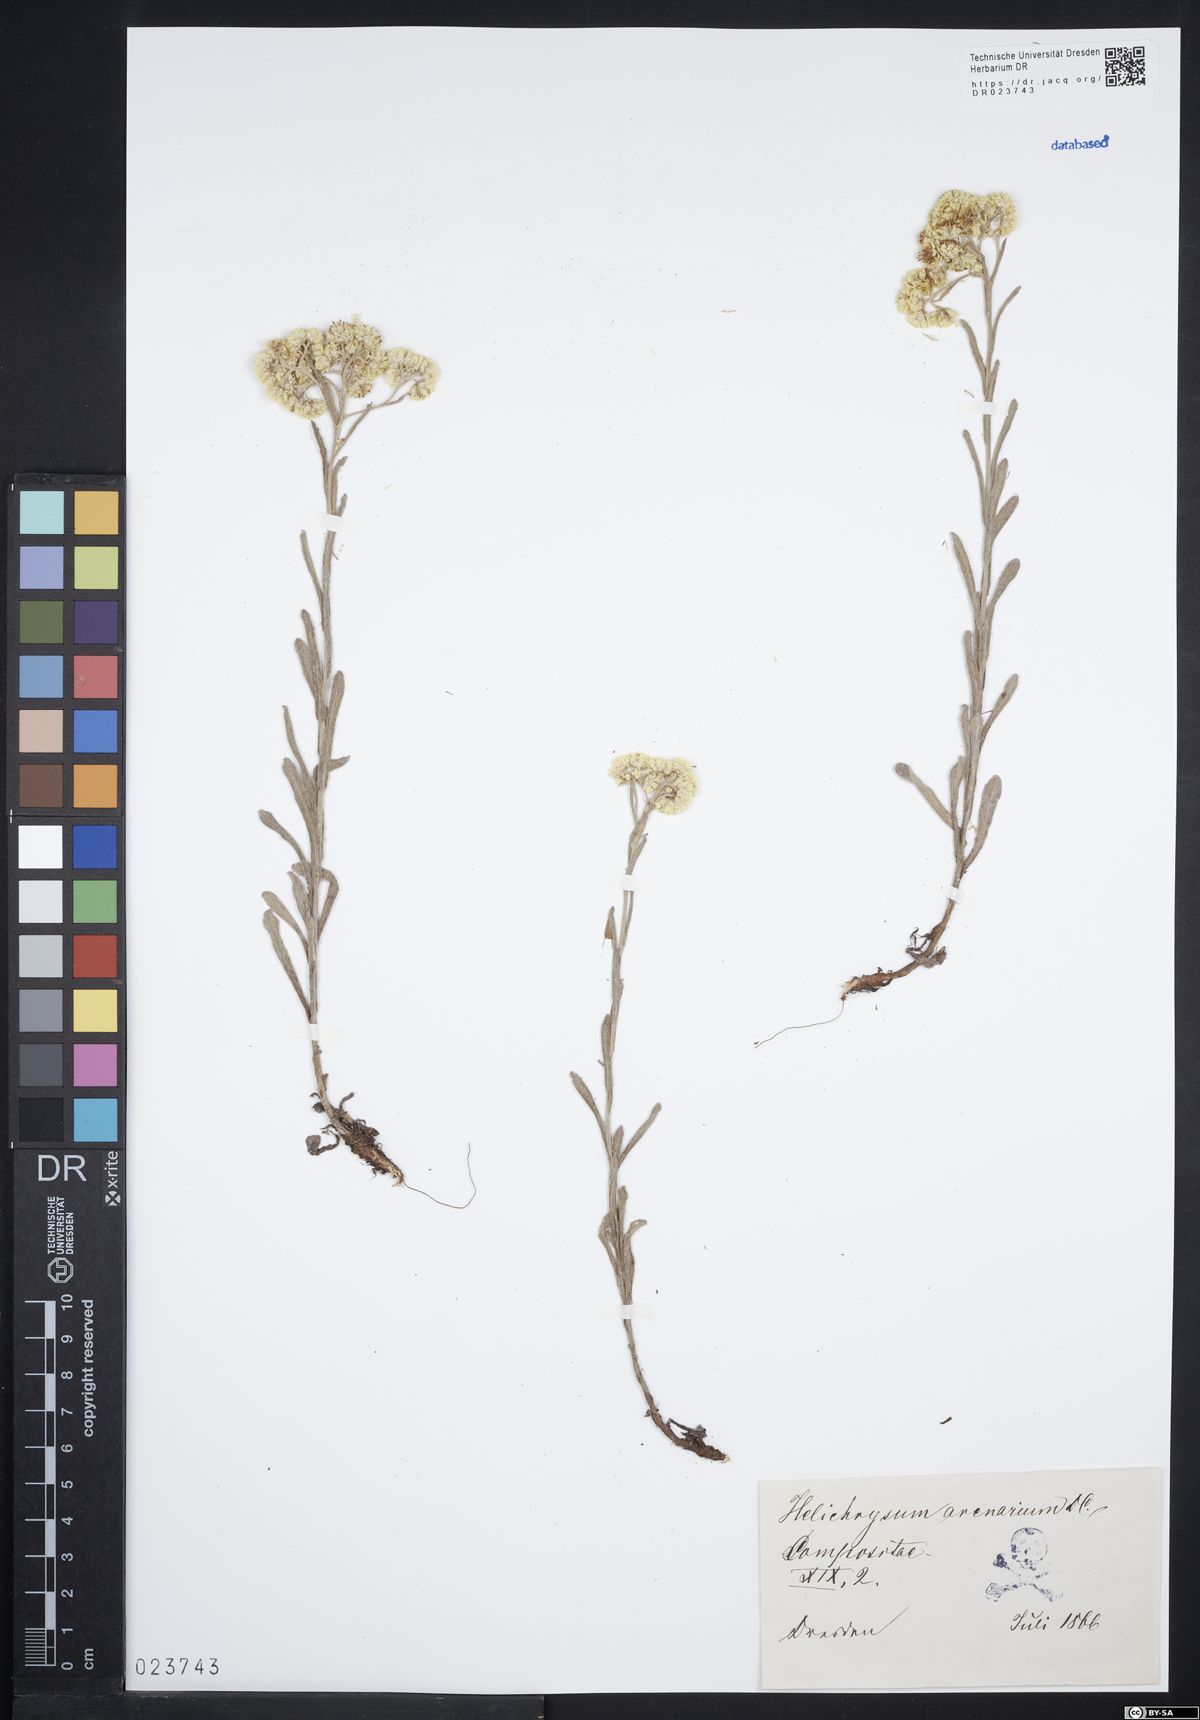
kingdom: Plantae
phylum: Tracheophyta
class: Magnoliopsida
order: Asterales
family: Asteraceae
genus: Helichrysum
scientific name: Helichrysum arenarium
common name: Strawflower
